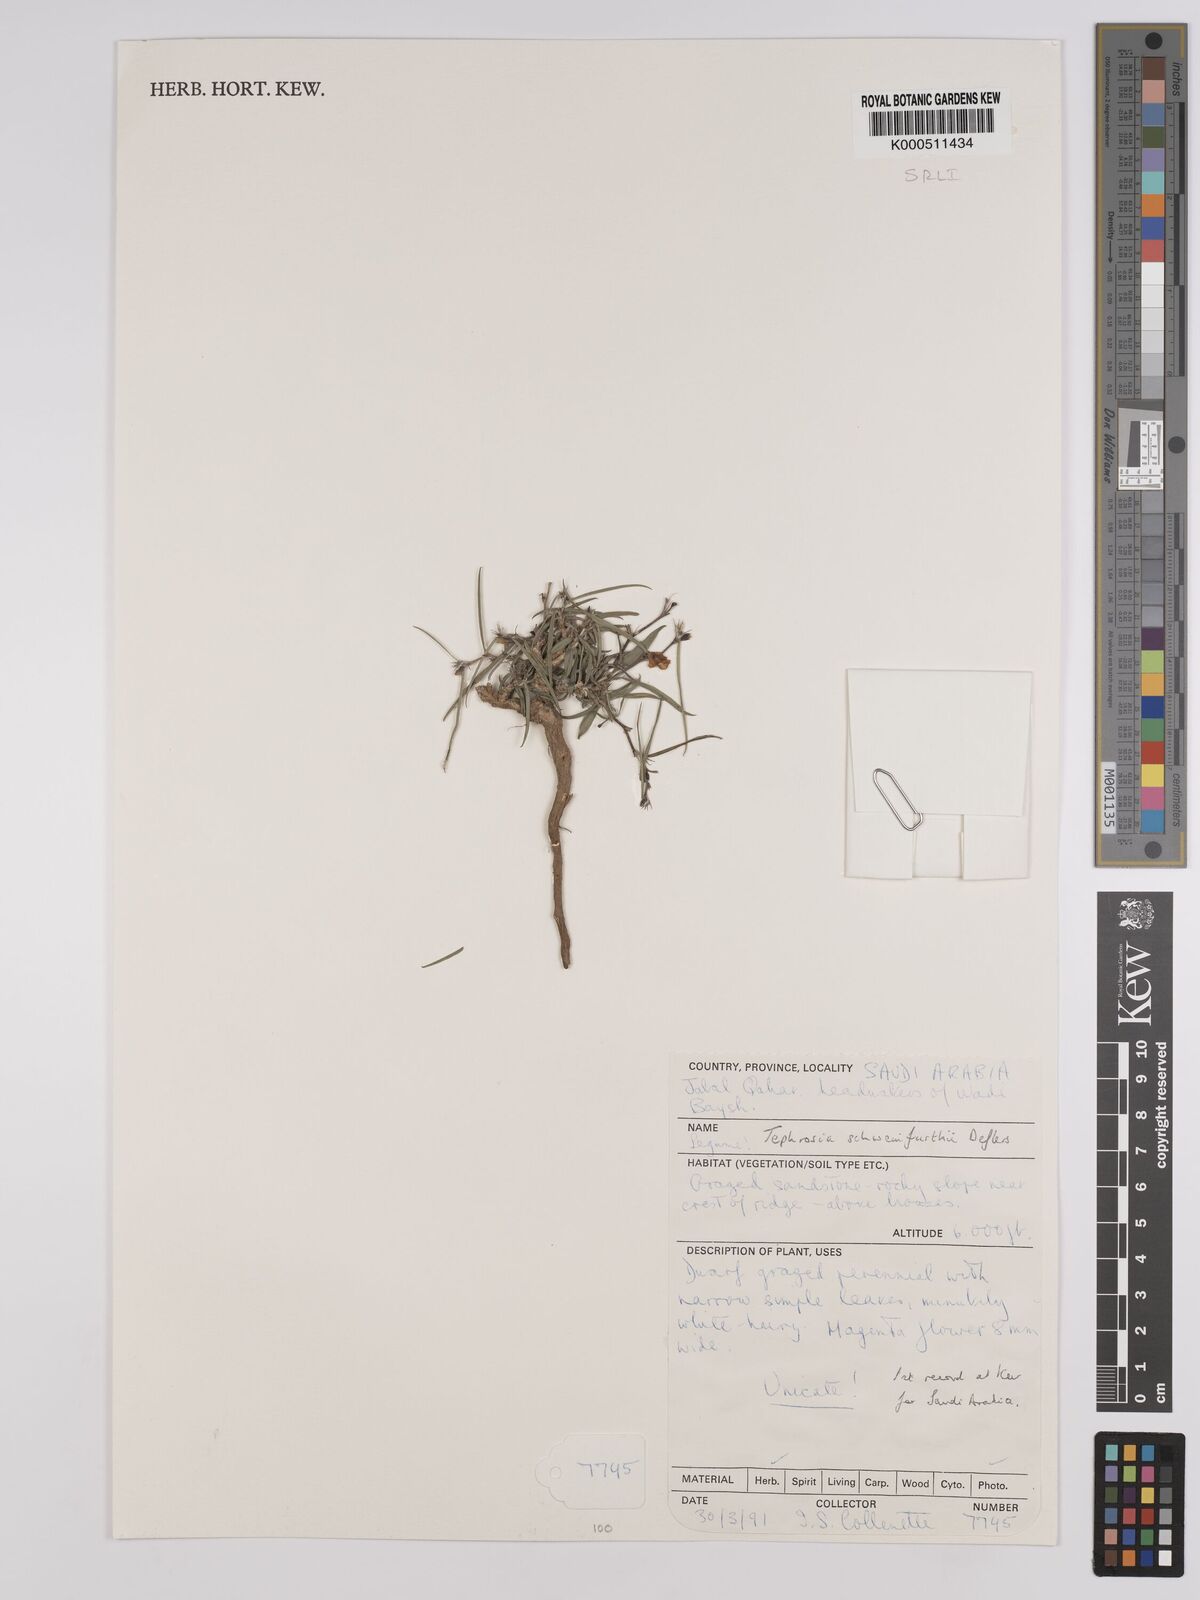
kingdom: Plantae
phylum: Tracheophyta
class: Magnoliopsida
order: Fabales
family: Fabaceae
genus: Tephrosia
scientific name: Tephrosia heterophylla
